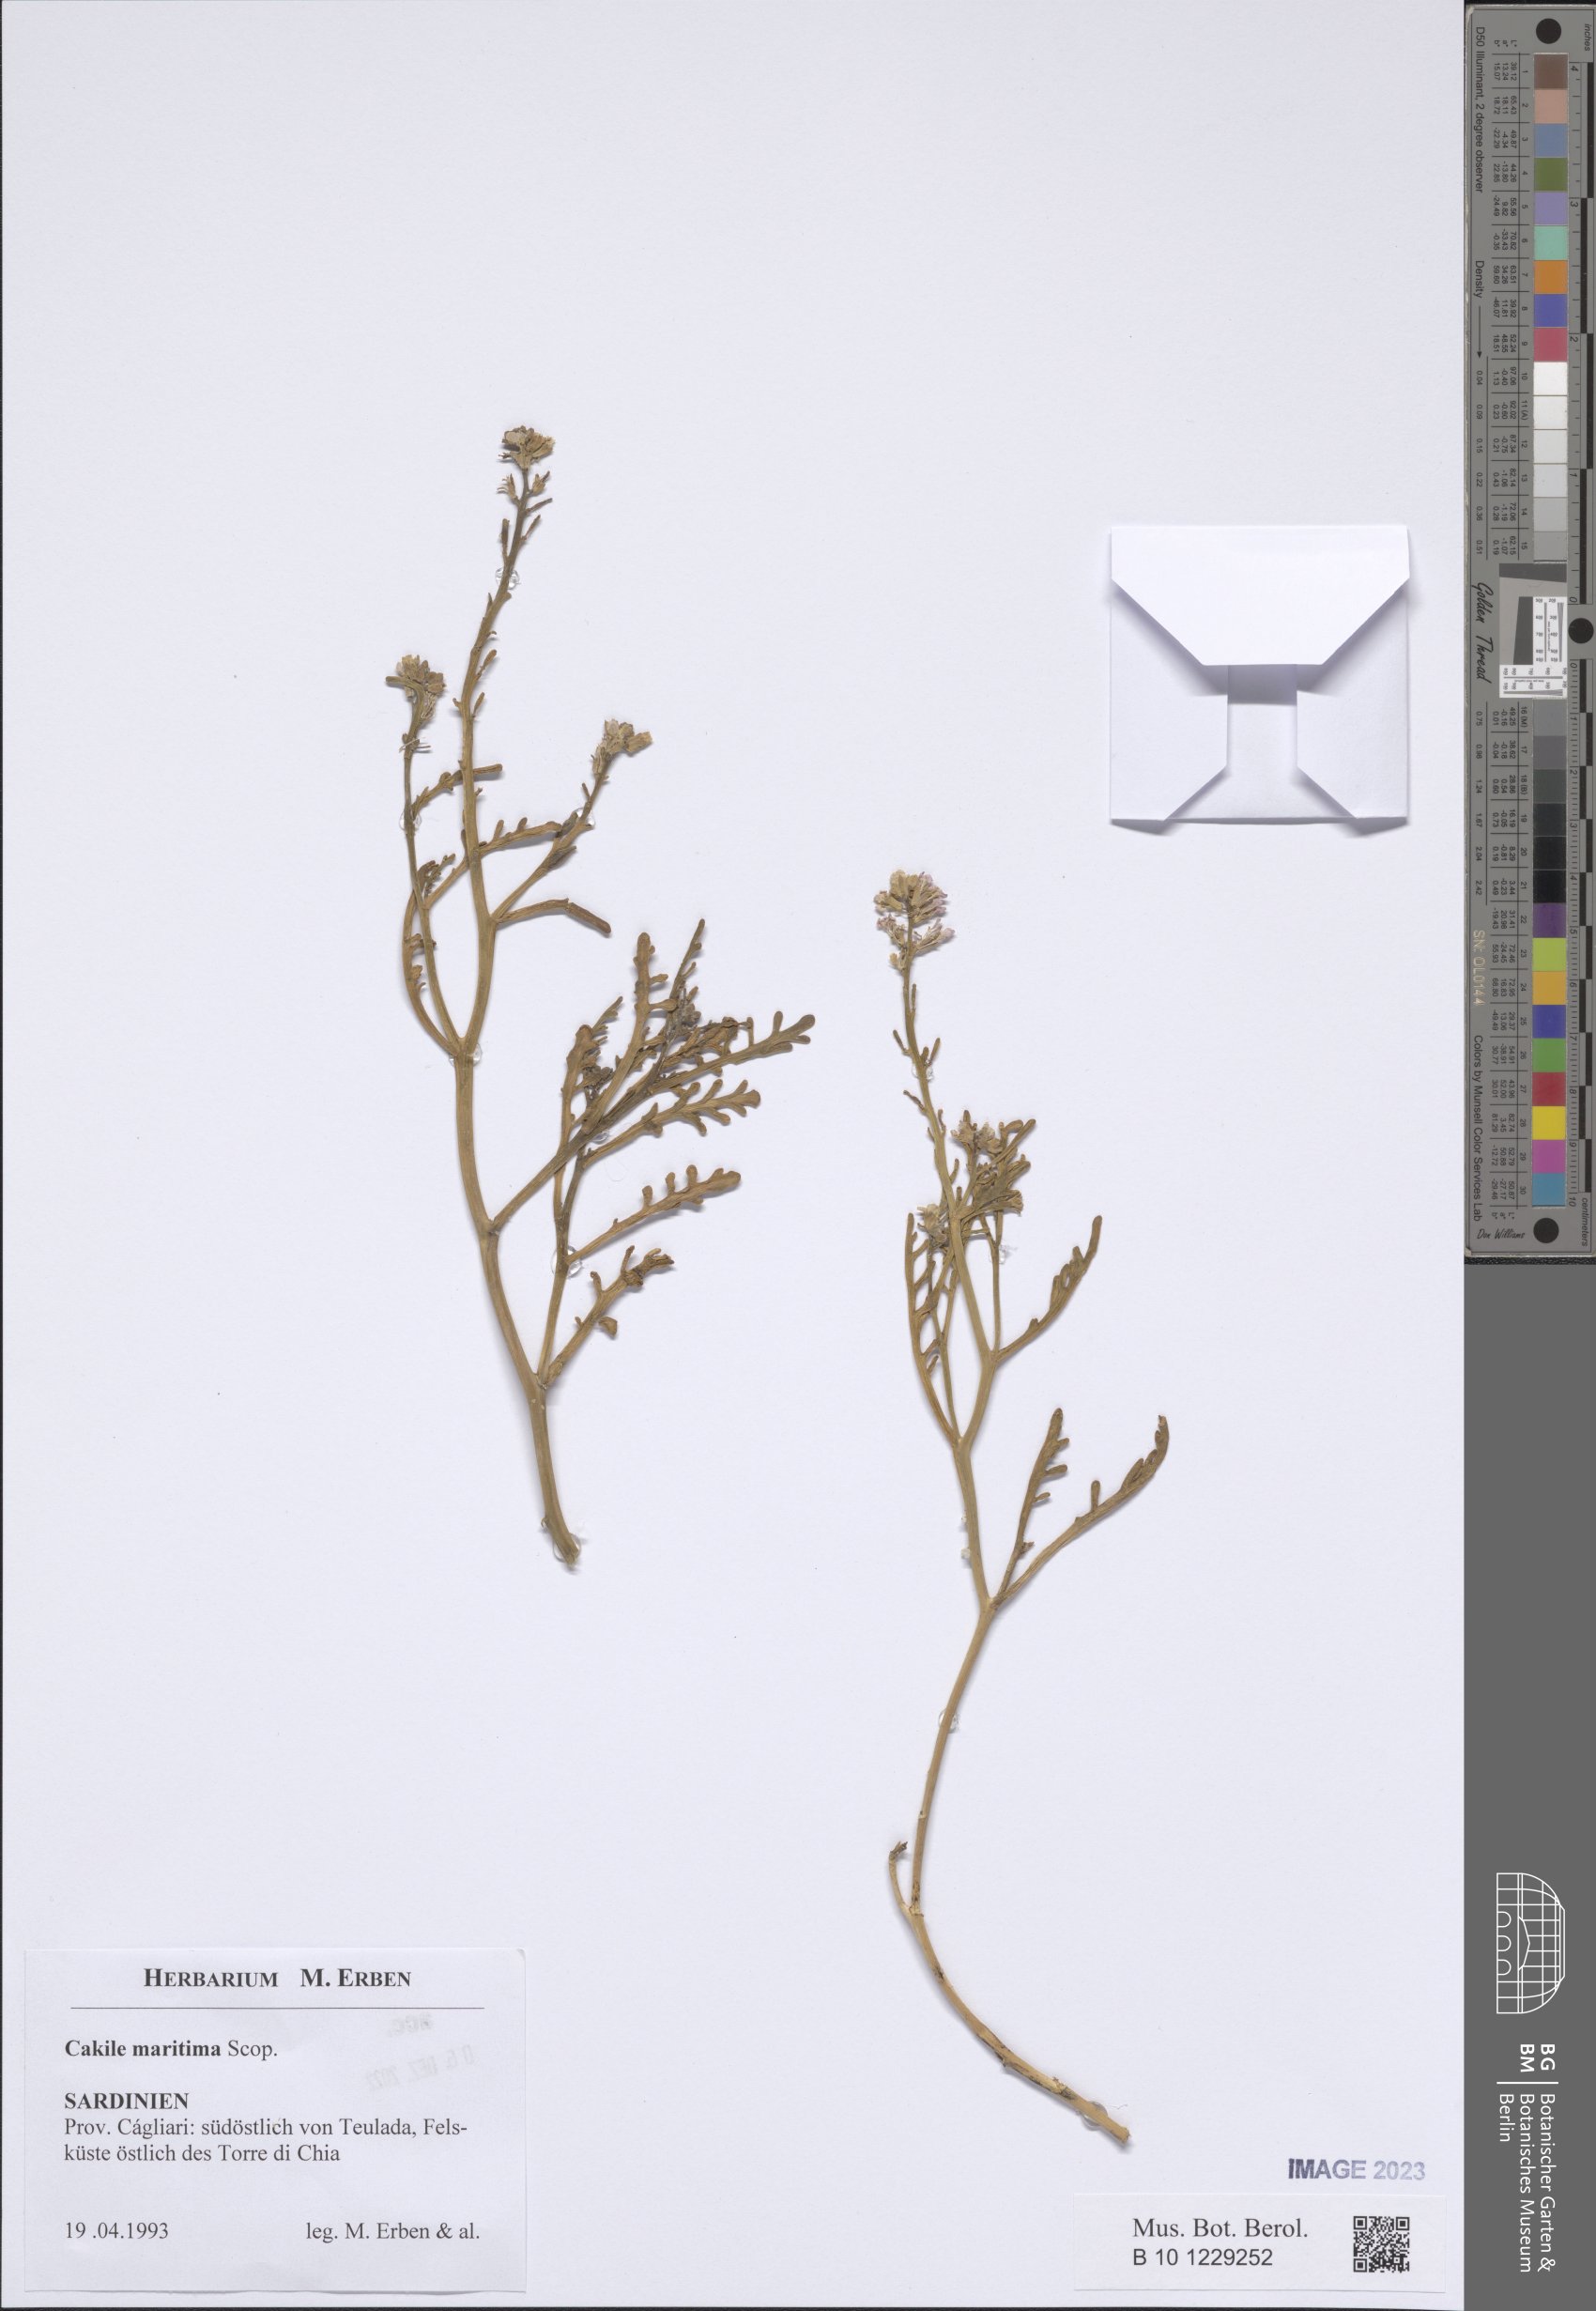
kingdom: Plantae
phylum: Tracheophyta
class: Magnoliopsida
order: Brassicales
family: Brassicaceae
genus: Cakile
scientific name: Cakile maritima
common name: Sea rocket
